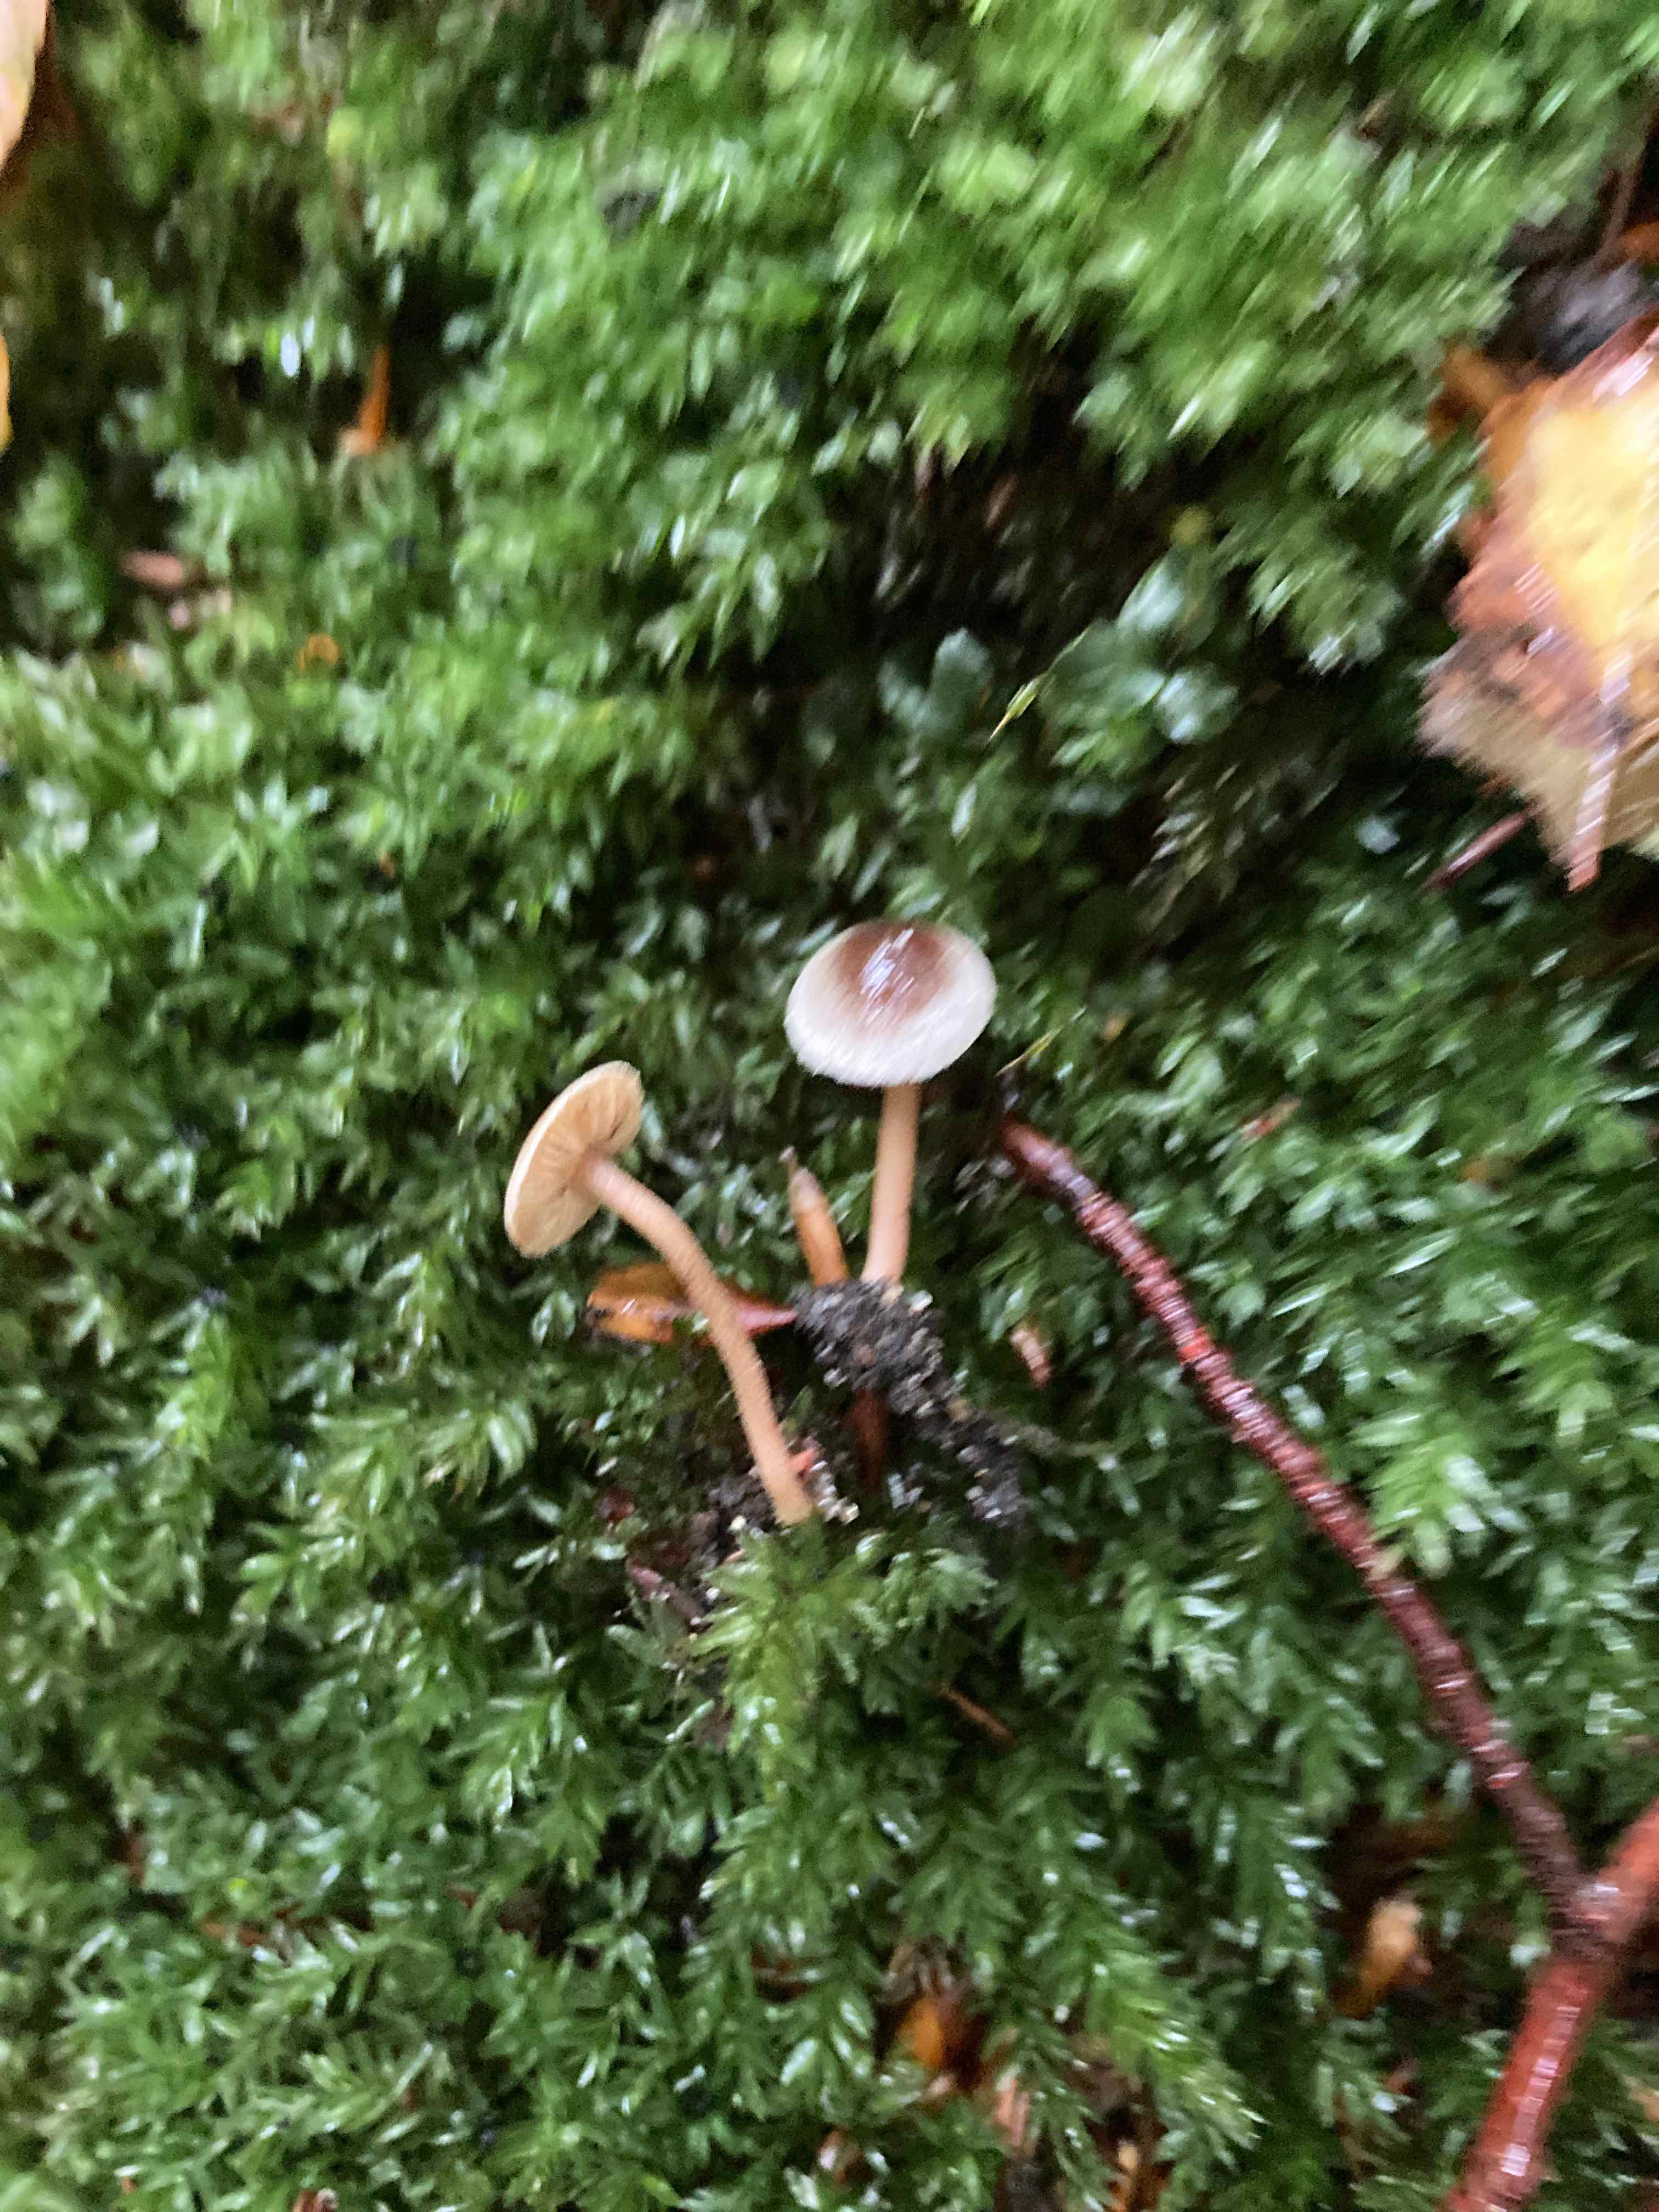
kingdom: Fungi
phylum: Basidiomycota
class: Agaricomycetes
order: Agaricales
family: Inocybaceae
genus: Inocybe
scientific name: Inocybe petiginosa
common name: liden trævlhat
